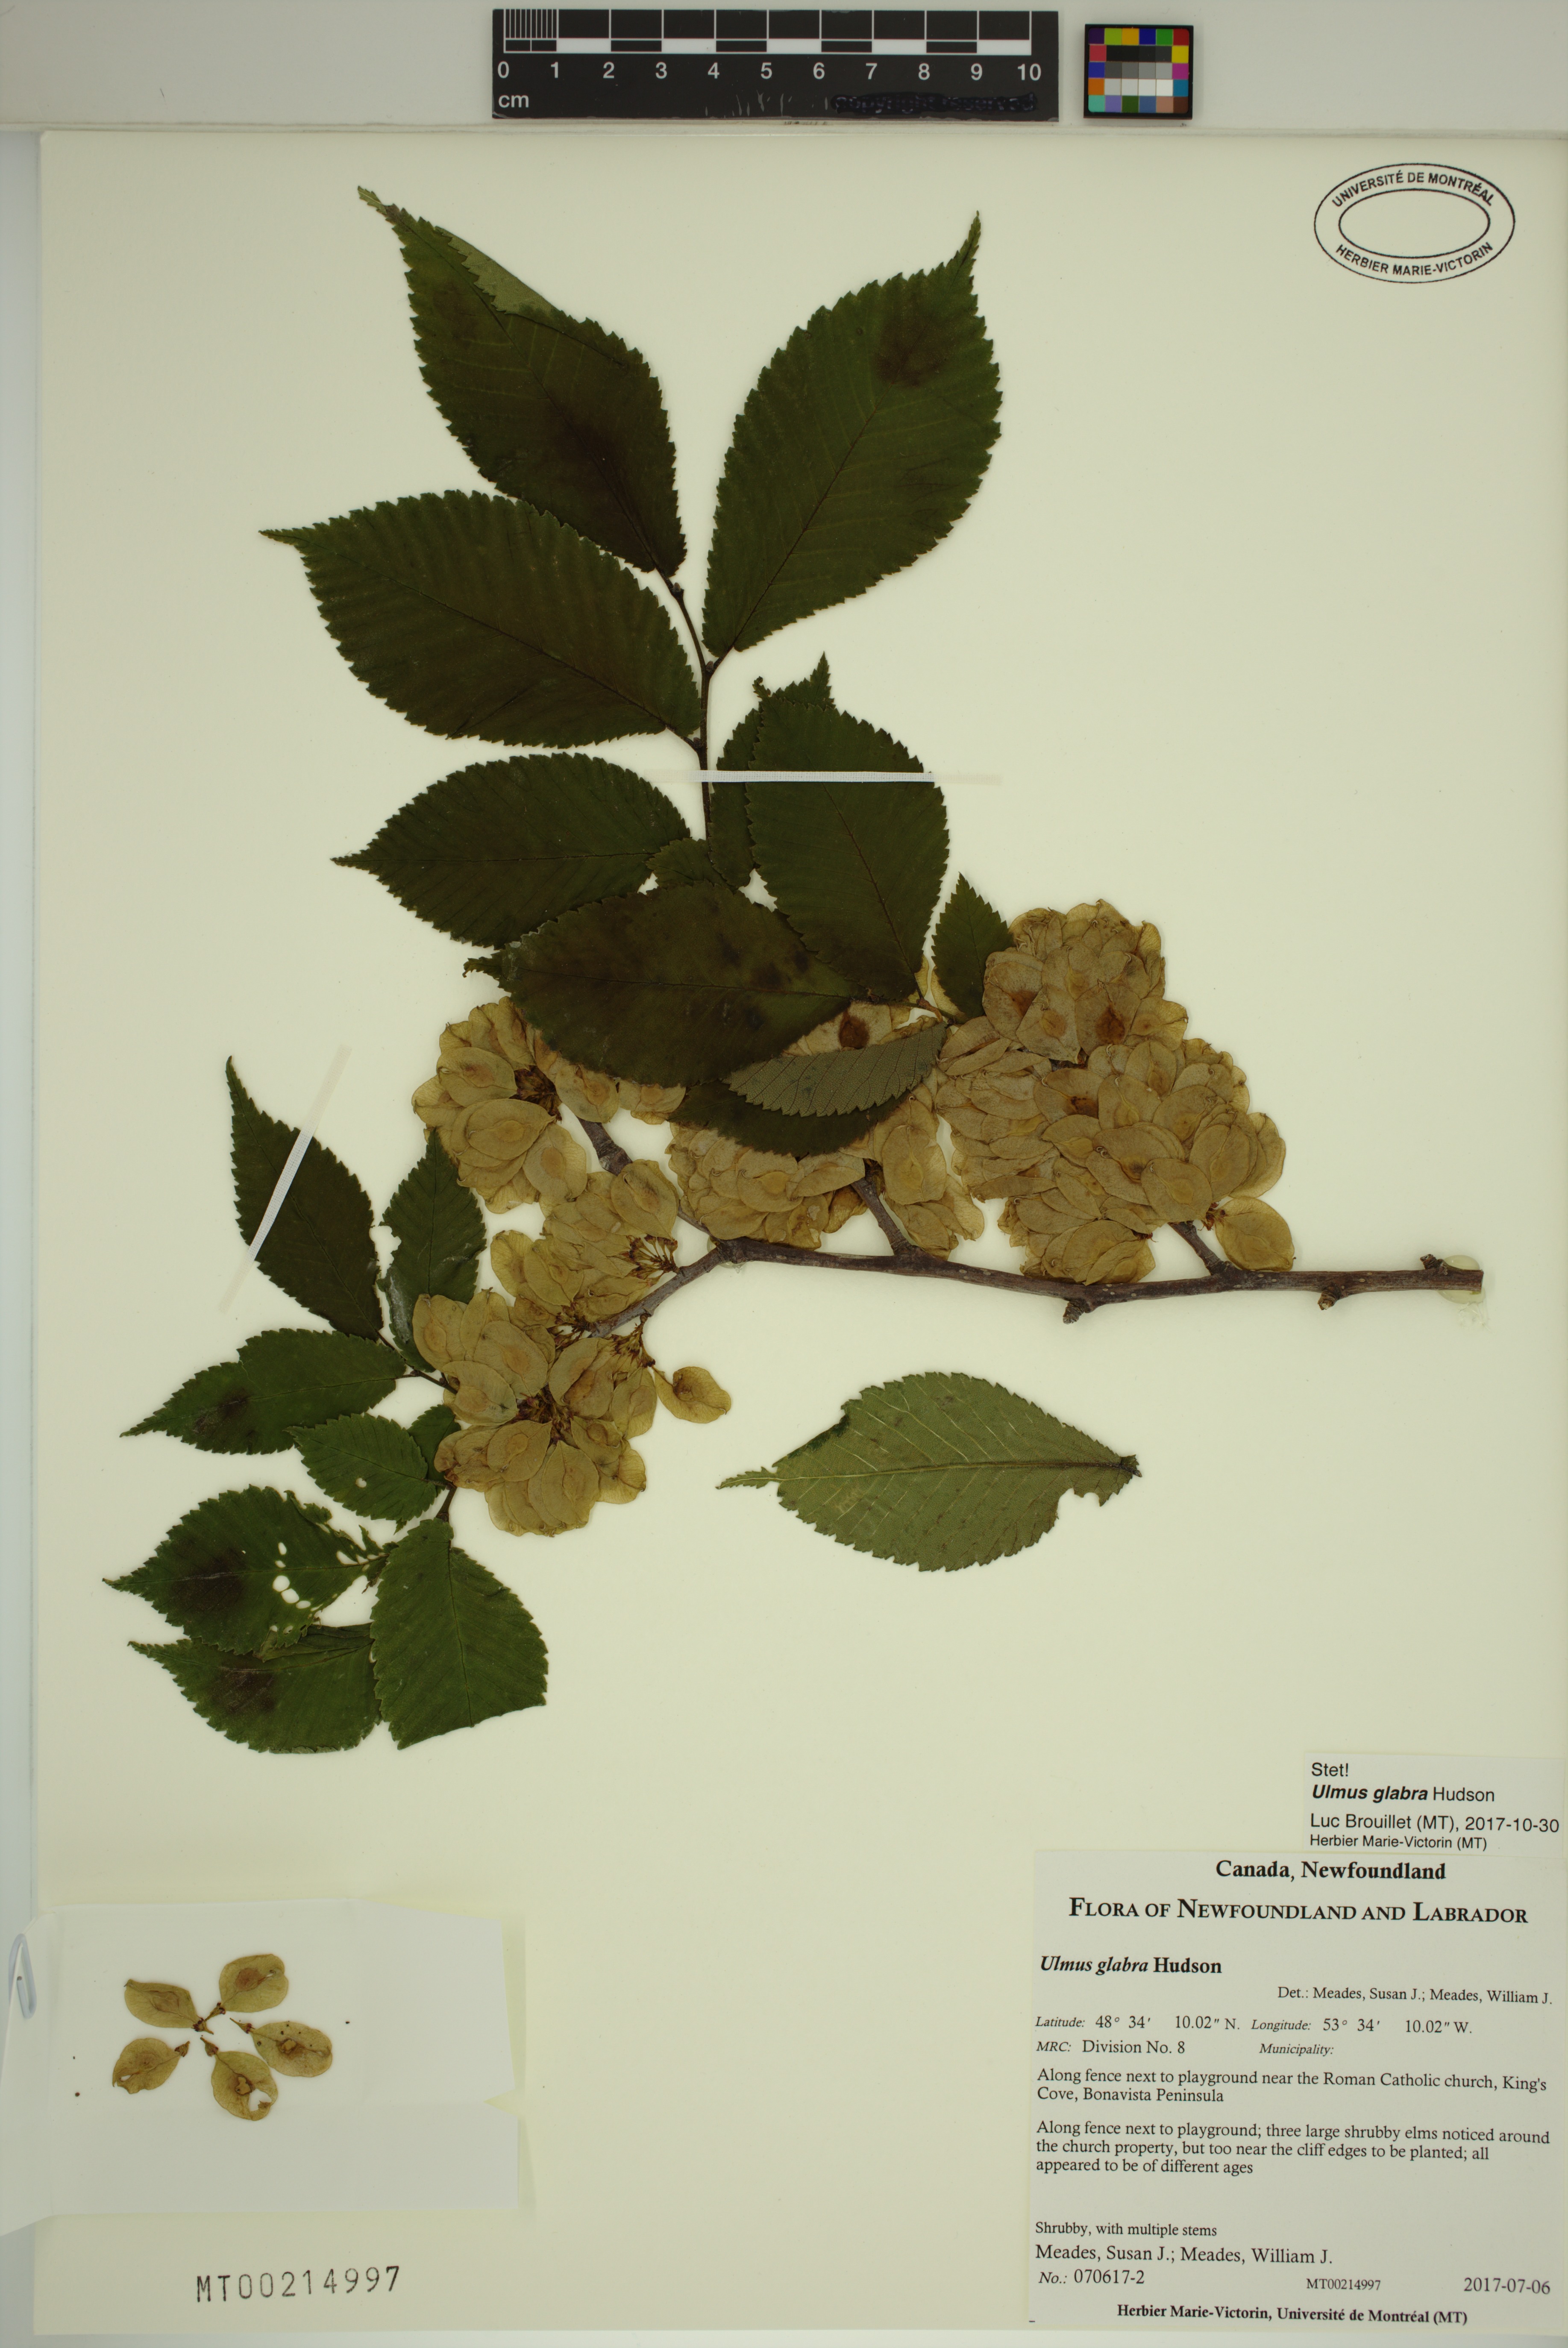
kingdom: Plantae
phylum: Tracheophyta
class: Magnoliopsida
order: Rosales
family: Ulmaceae
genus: Ulmus
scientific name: Ulmus glabra
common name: Wych elm
